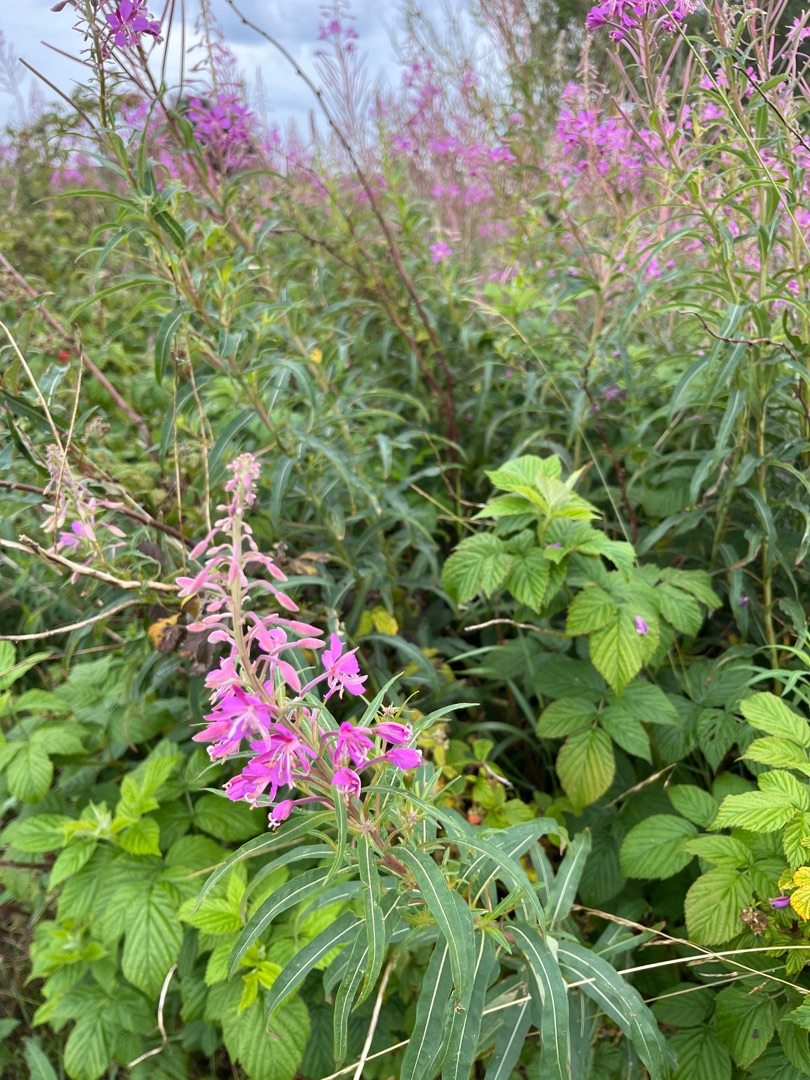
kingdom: Plantae
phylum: Tracheophyta
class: Magnoliopsida
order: Myrtales
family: Onagraceae
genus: Chamaenerion
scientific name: Chamaenerion angustifolium
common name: Gederams
